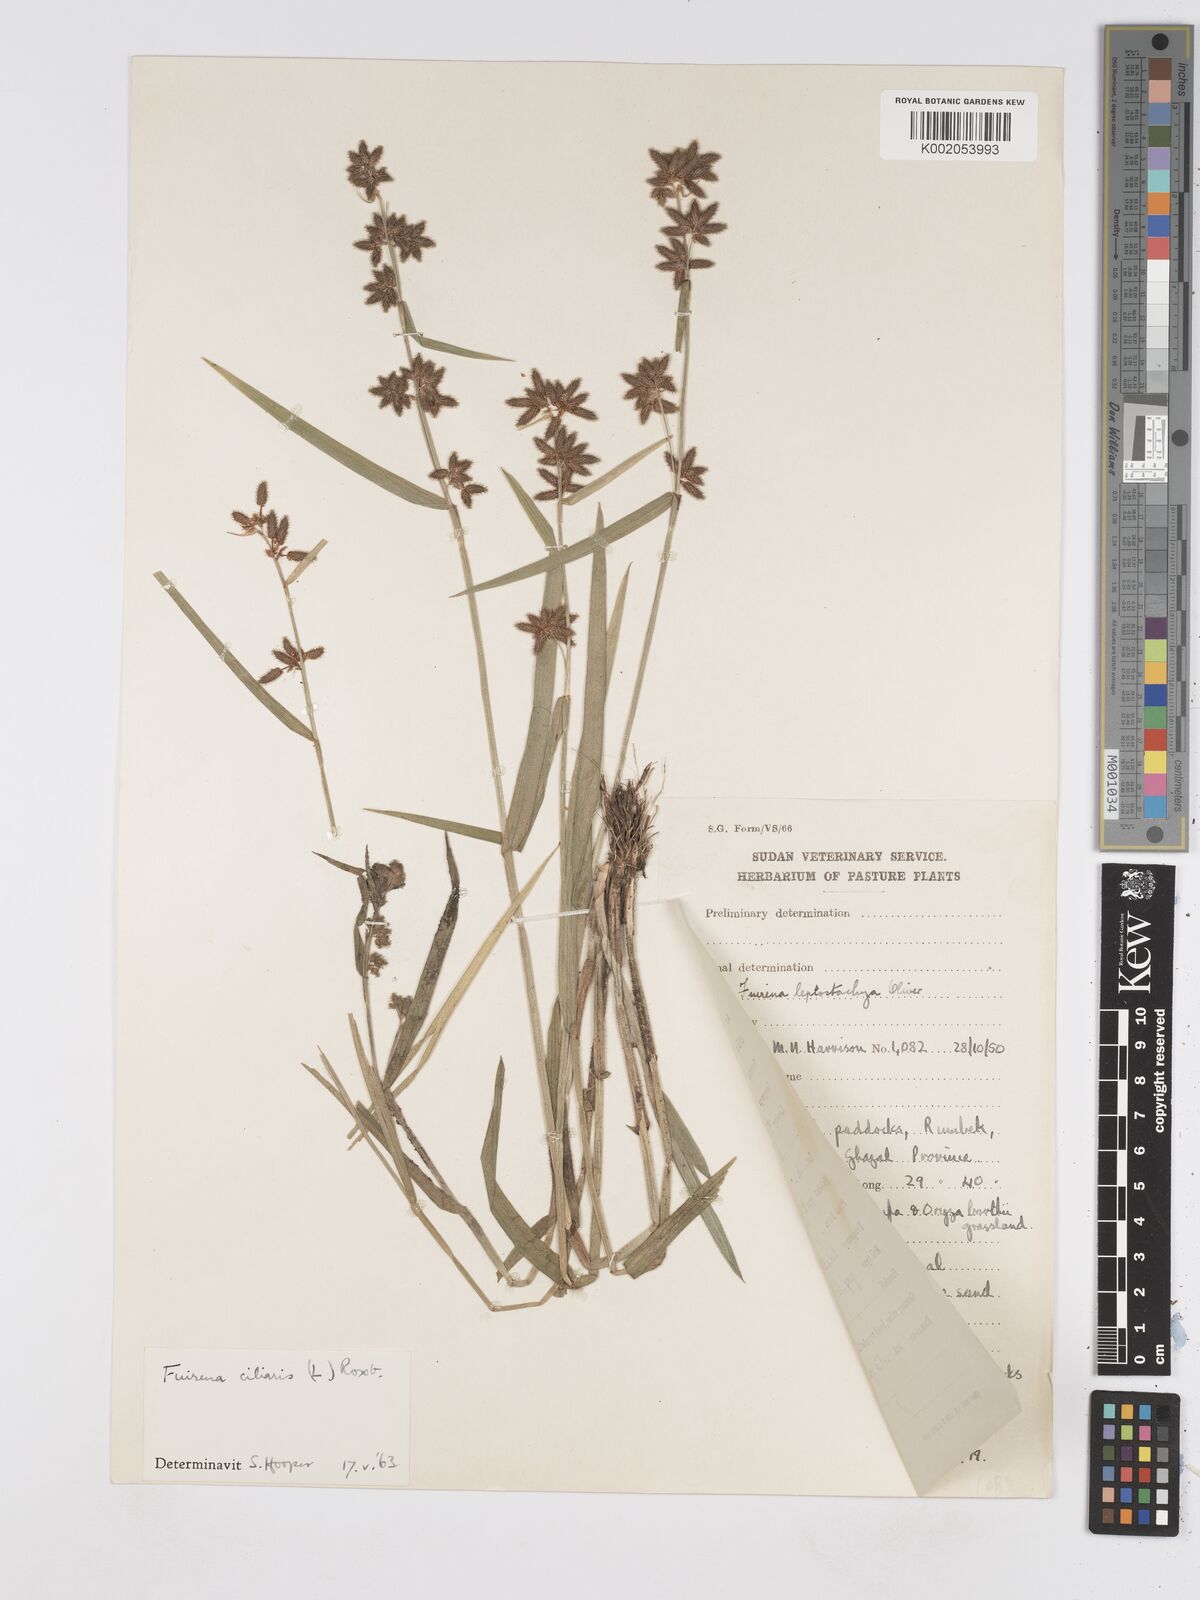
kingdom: Plantae
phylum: Tracheophyta
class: Liliopsida
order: Poales
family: Cyperaceae
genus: Fuirena
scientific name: Fuirena ciliaris
